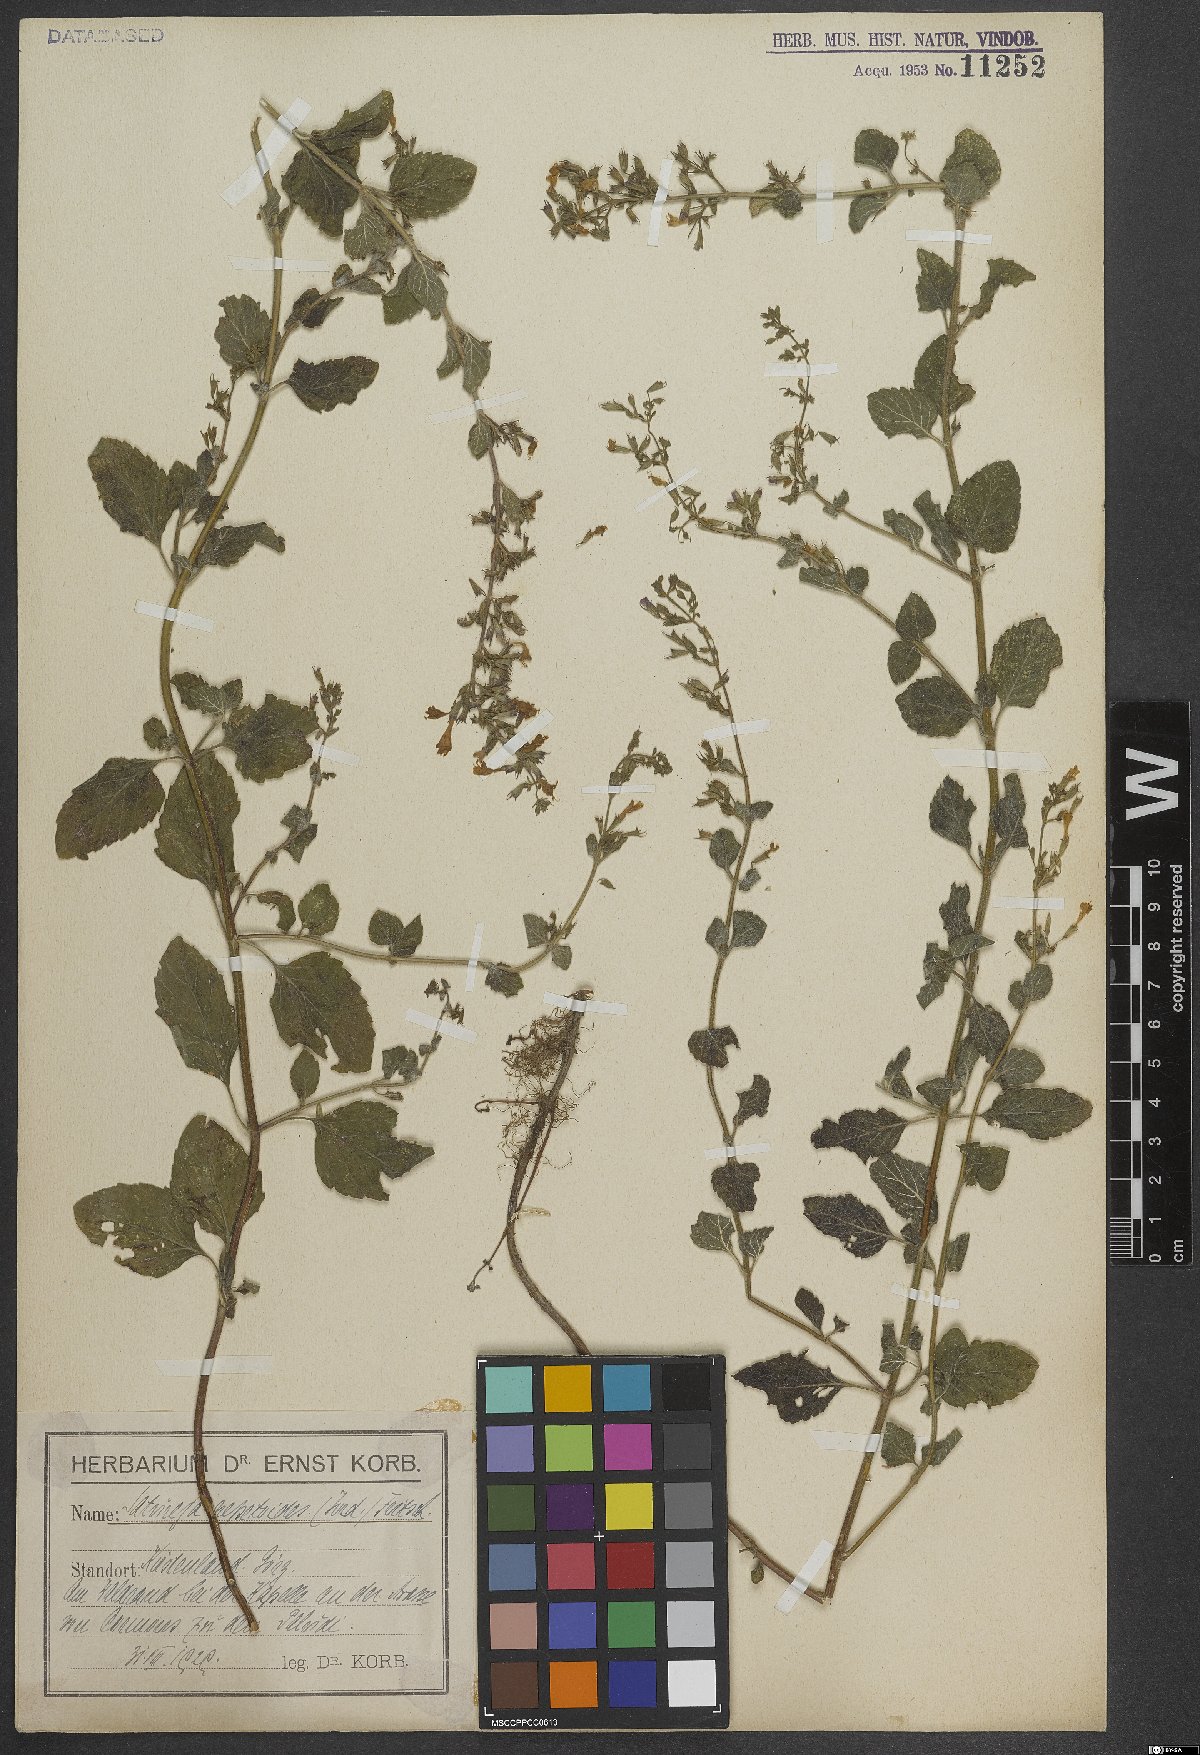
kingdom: Plantae
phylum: Tracheophyta
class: Magnoliopsida
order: Lamiales
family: Lamiaceae
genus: Clinopodium
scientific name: Clinopodium nepeta
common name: Lesser calamint
